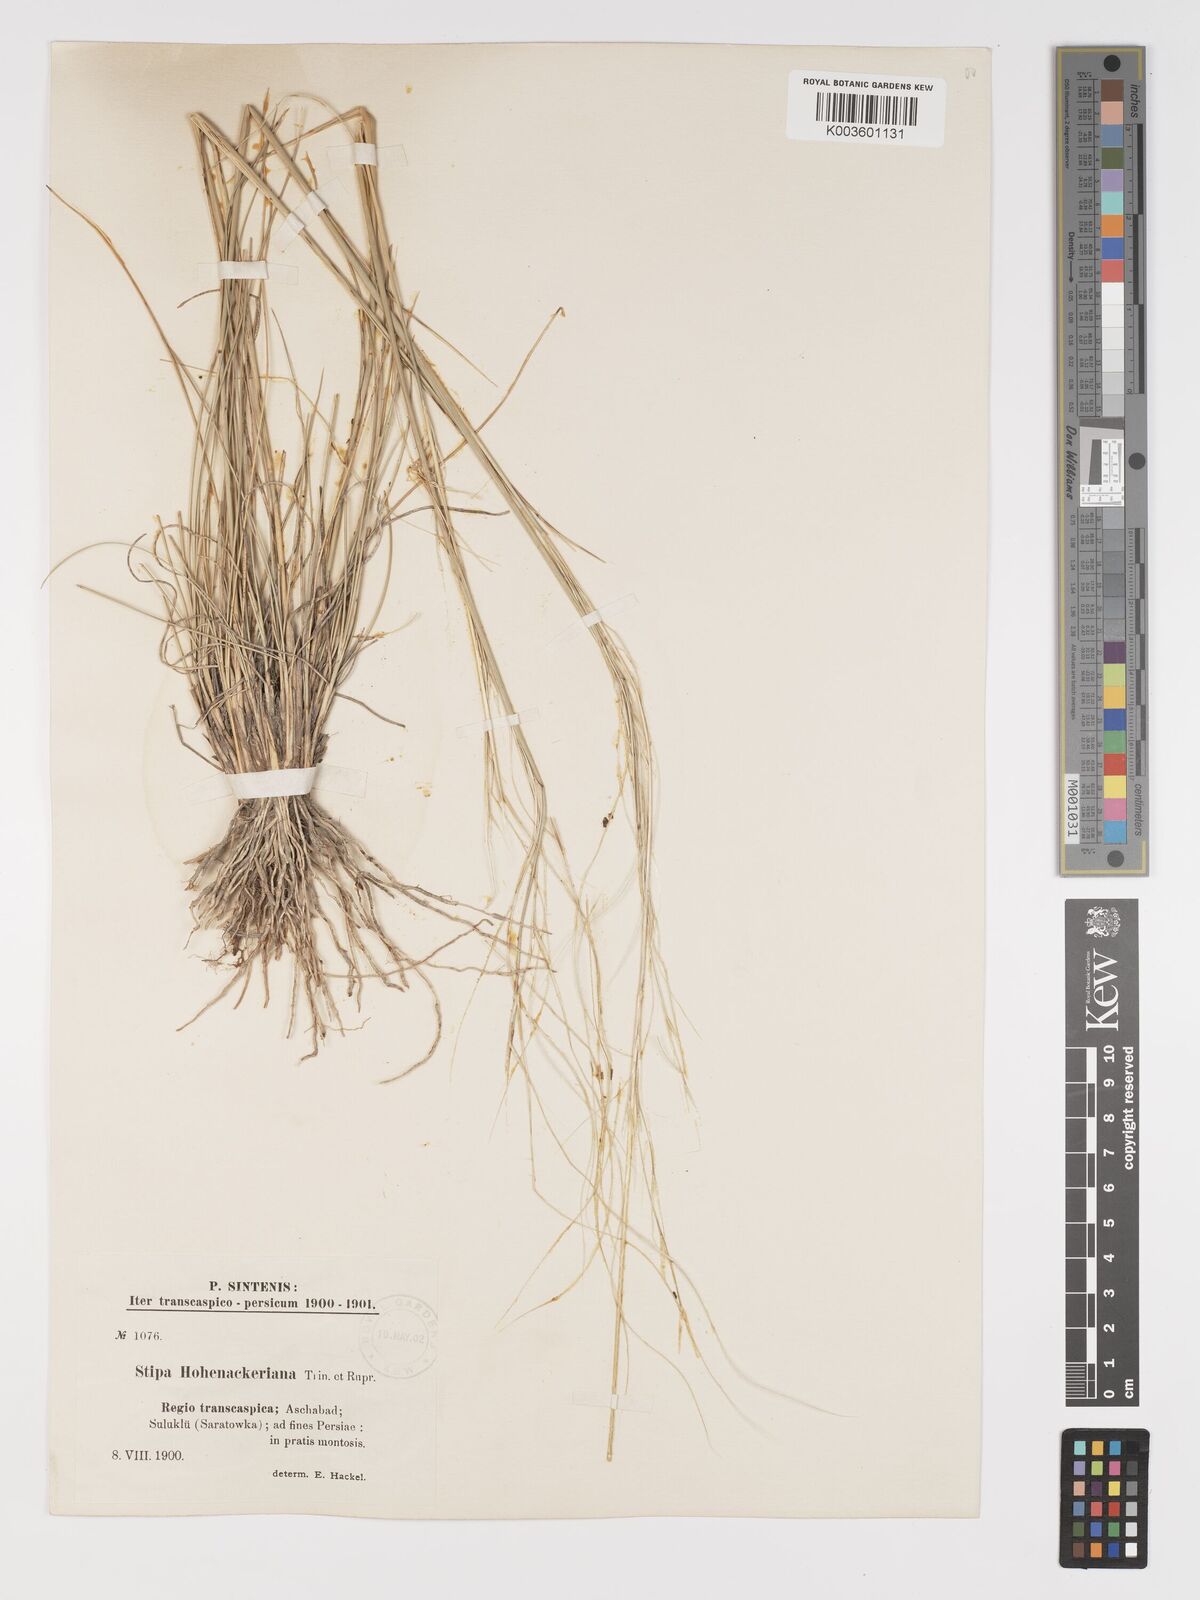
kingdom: Plantae
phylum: Tracheophyta
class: Liliopsida
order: Poales
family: Poaceae
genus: Stipa
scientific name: Stipa arabica
